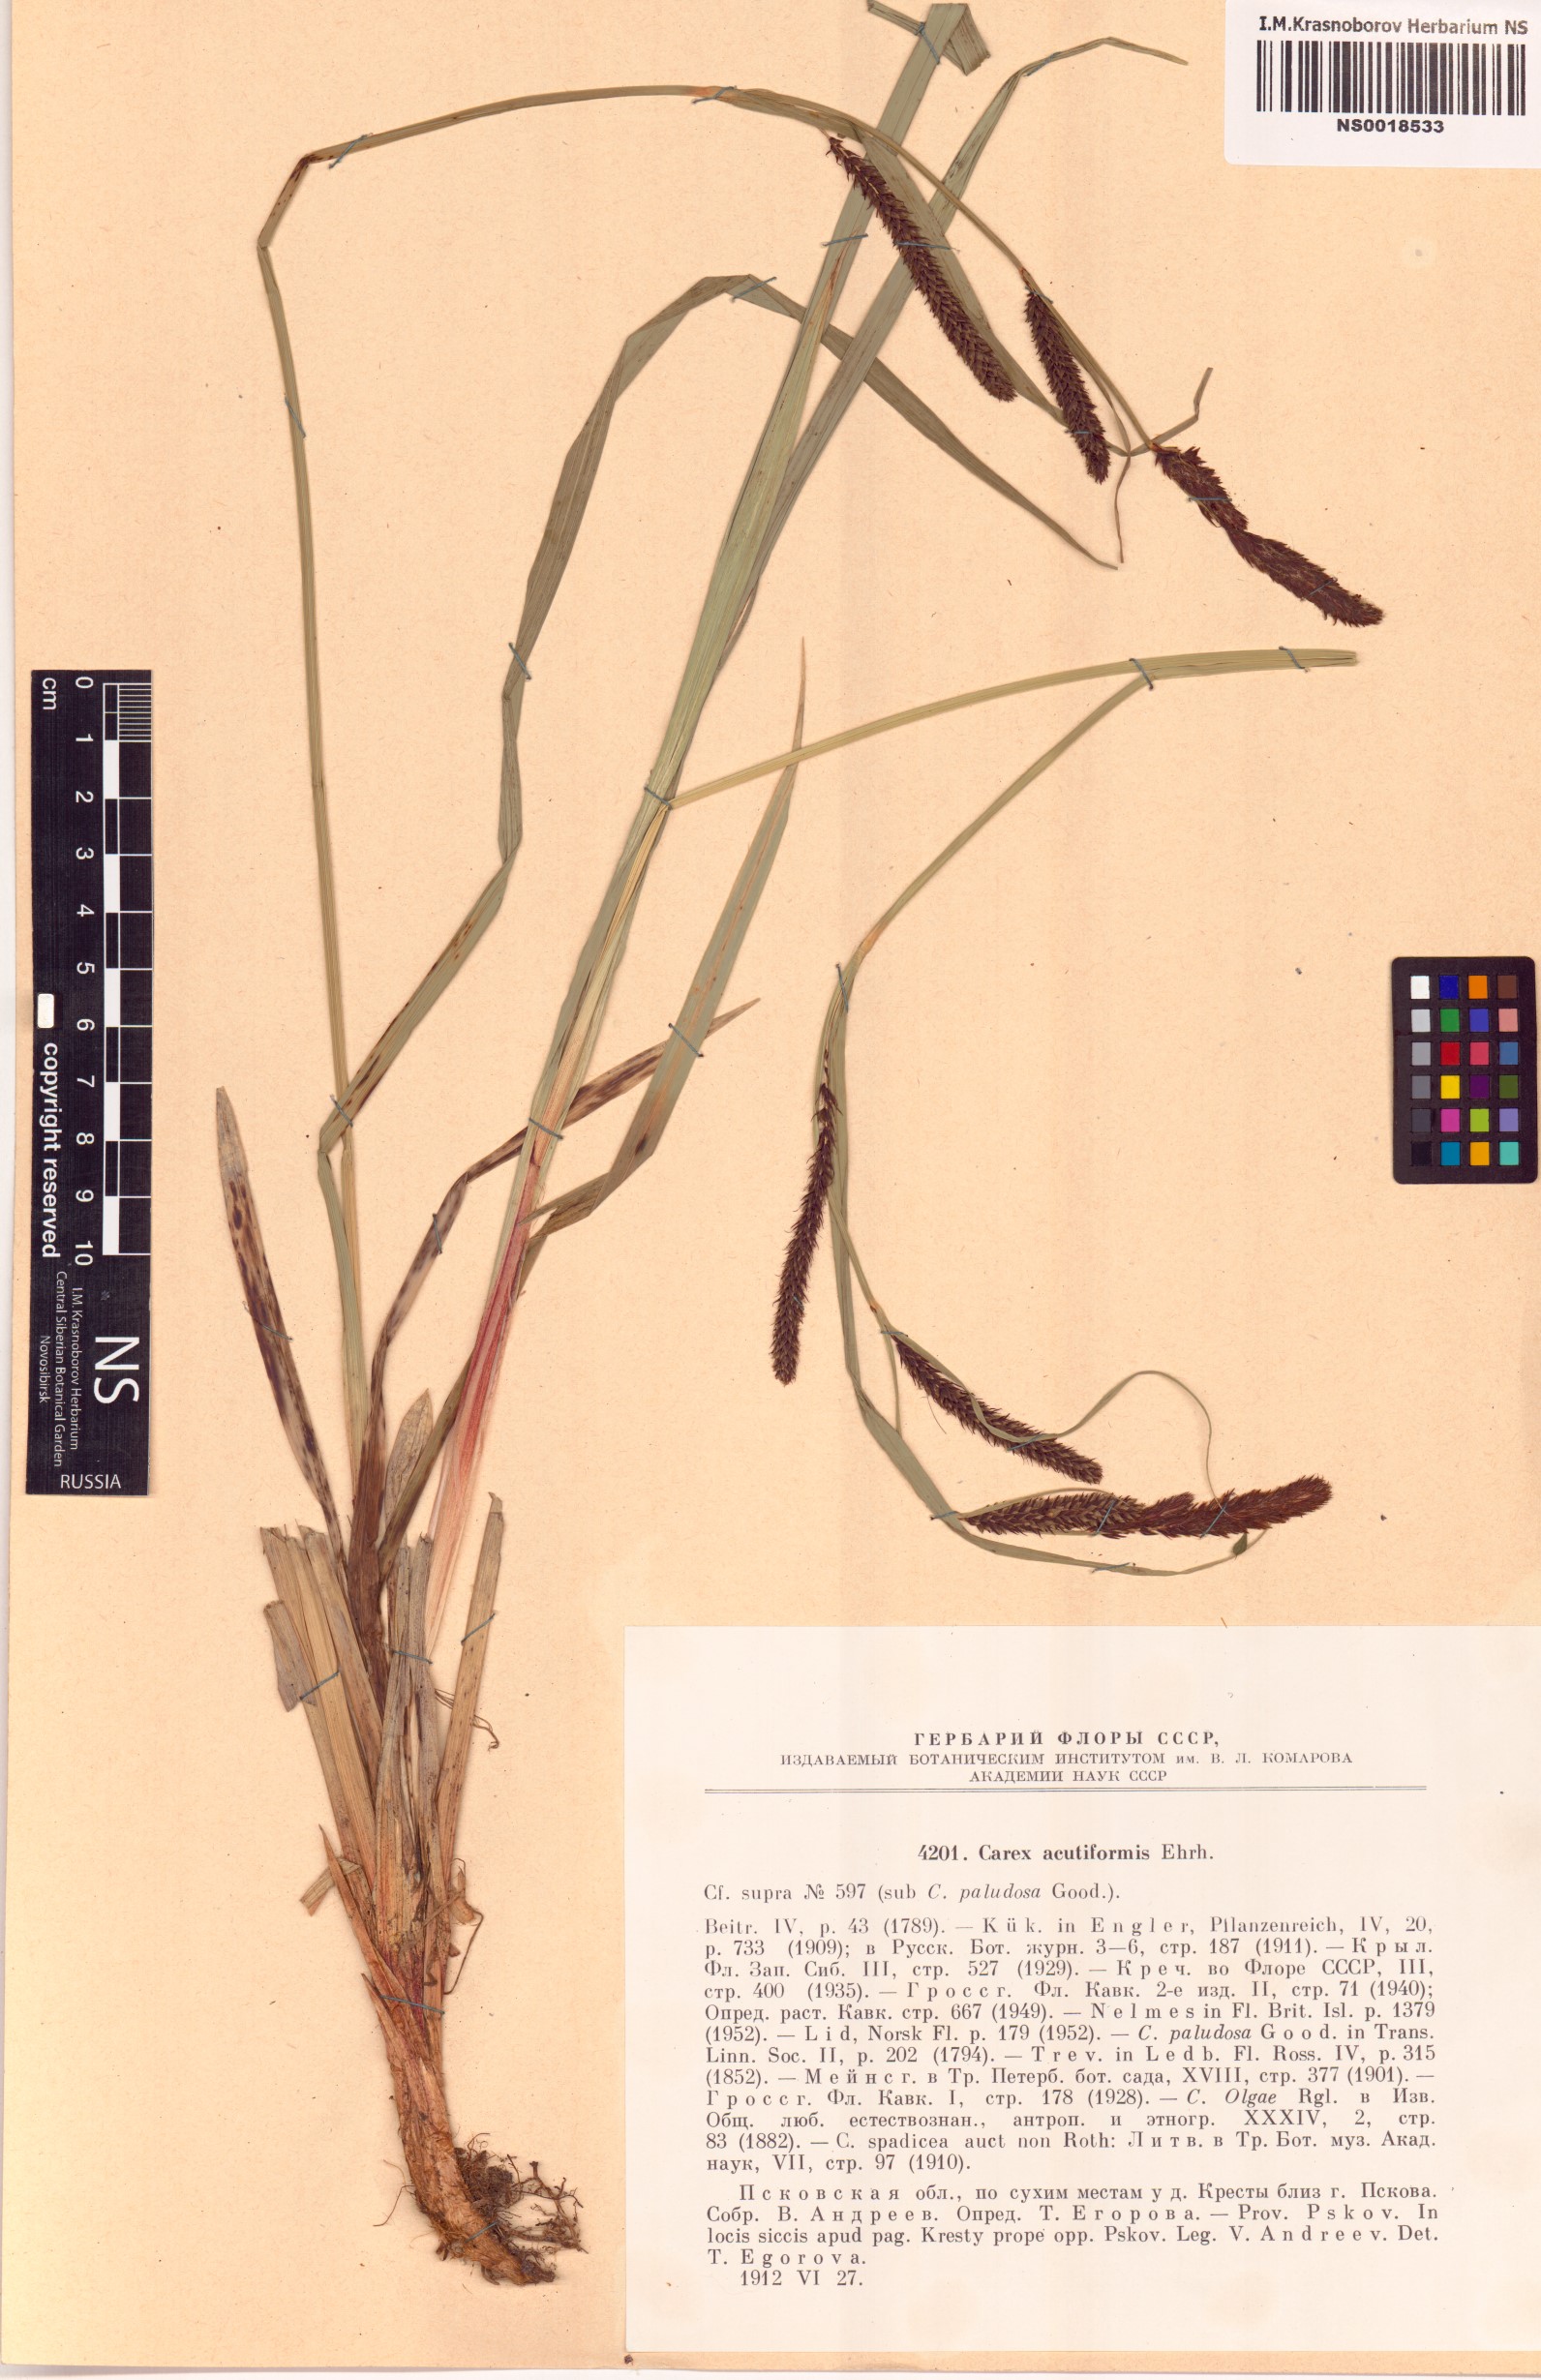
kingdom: Plantae
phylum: Tracheophyta
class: Liliopsida
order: Poales
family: Cyperaceae
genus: Carex
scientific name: Carex acutiformis
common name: Lesser pond-sedge
